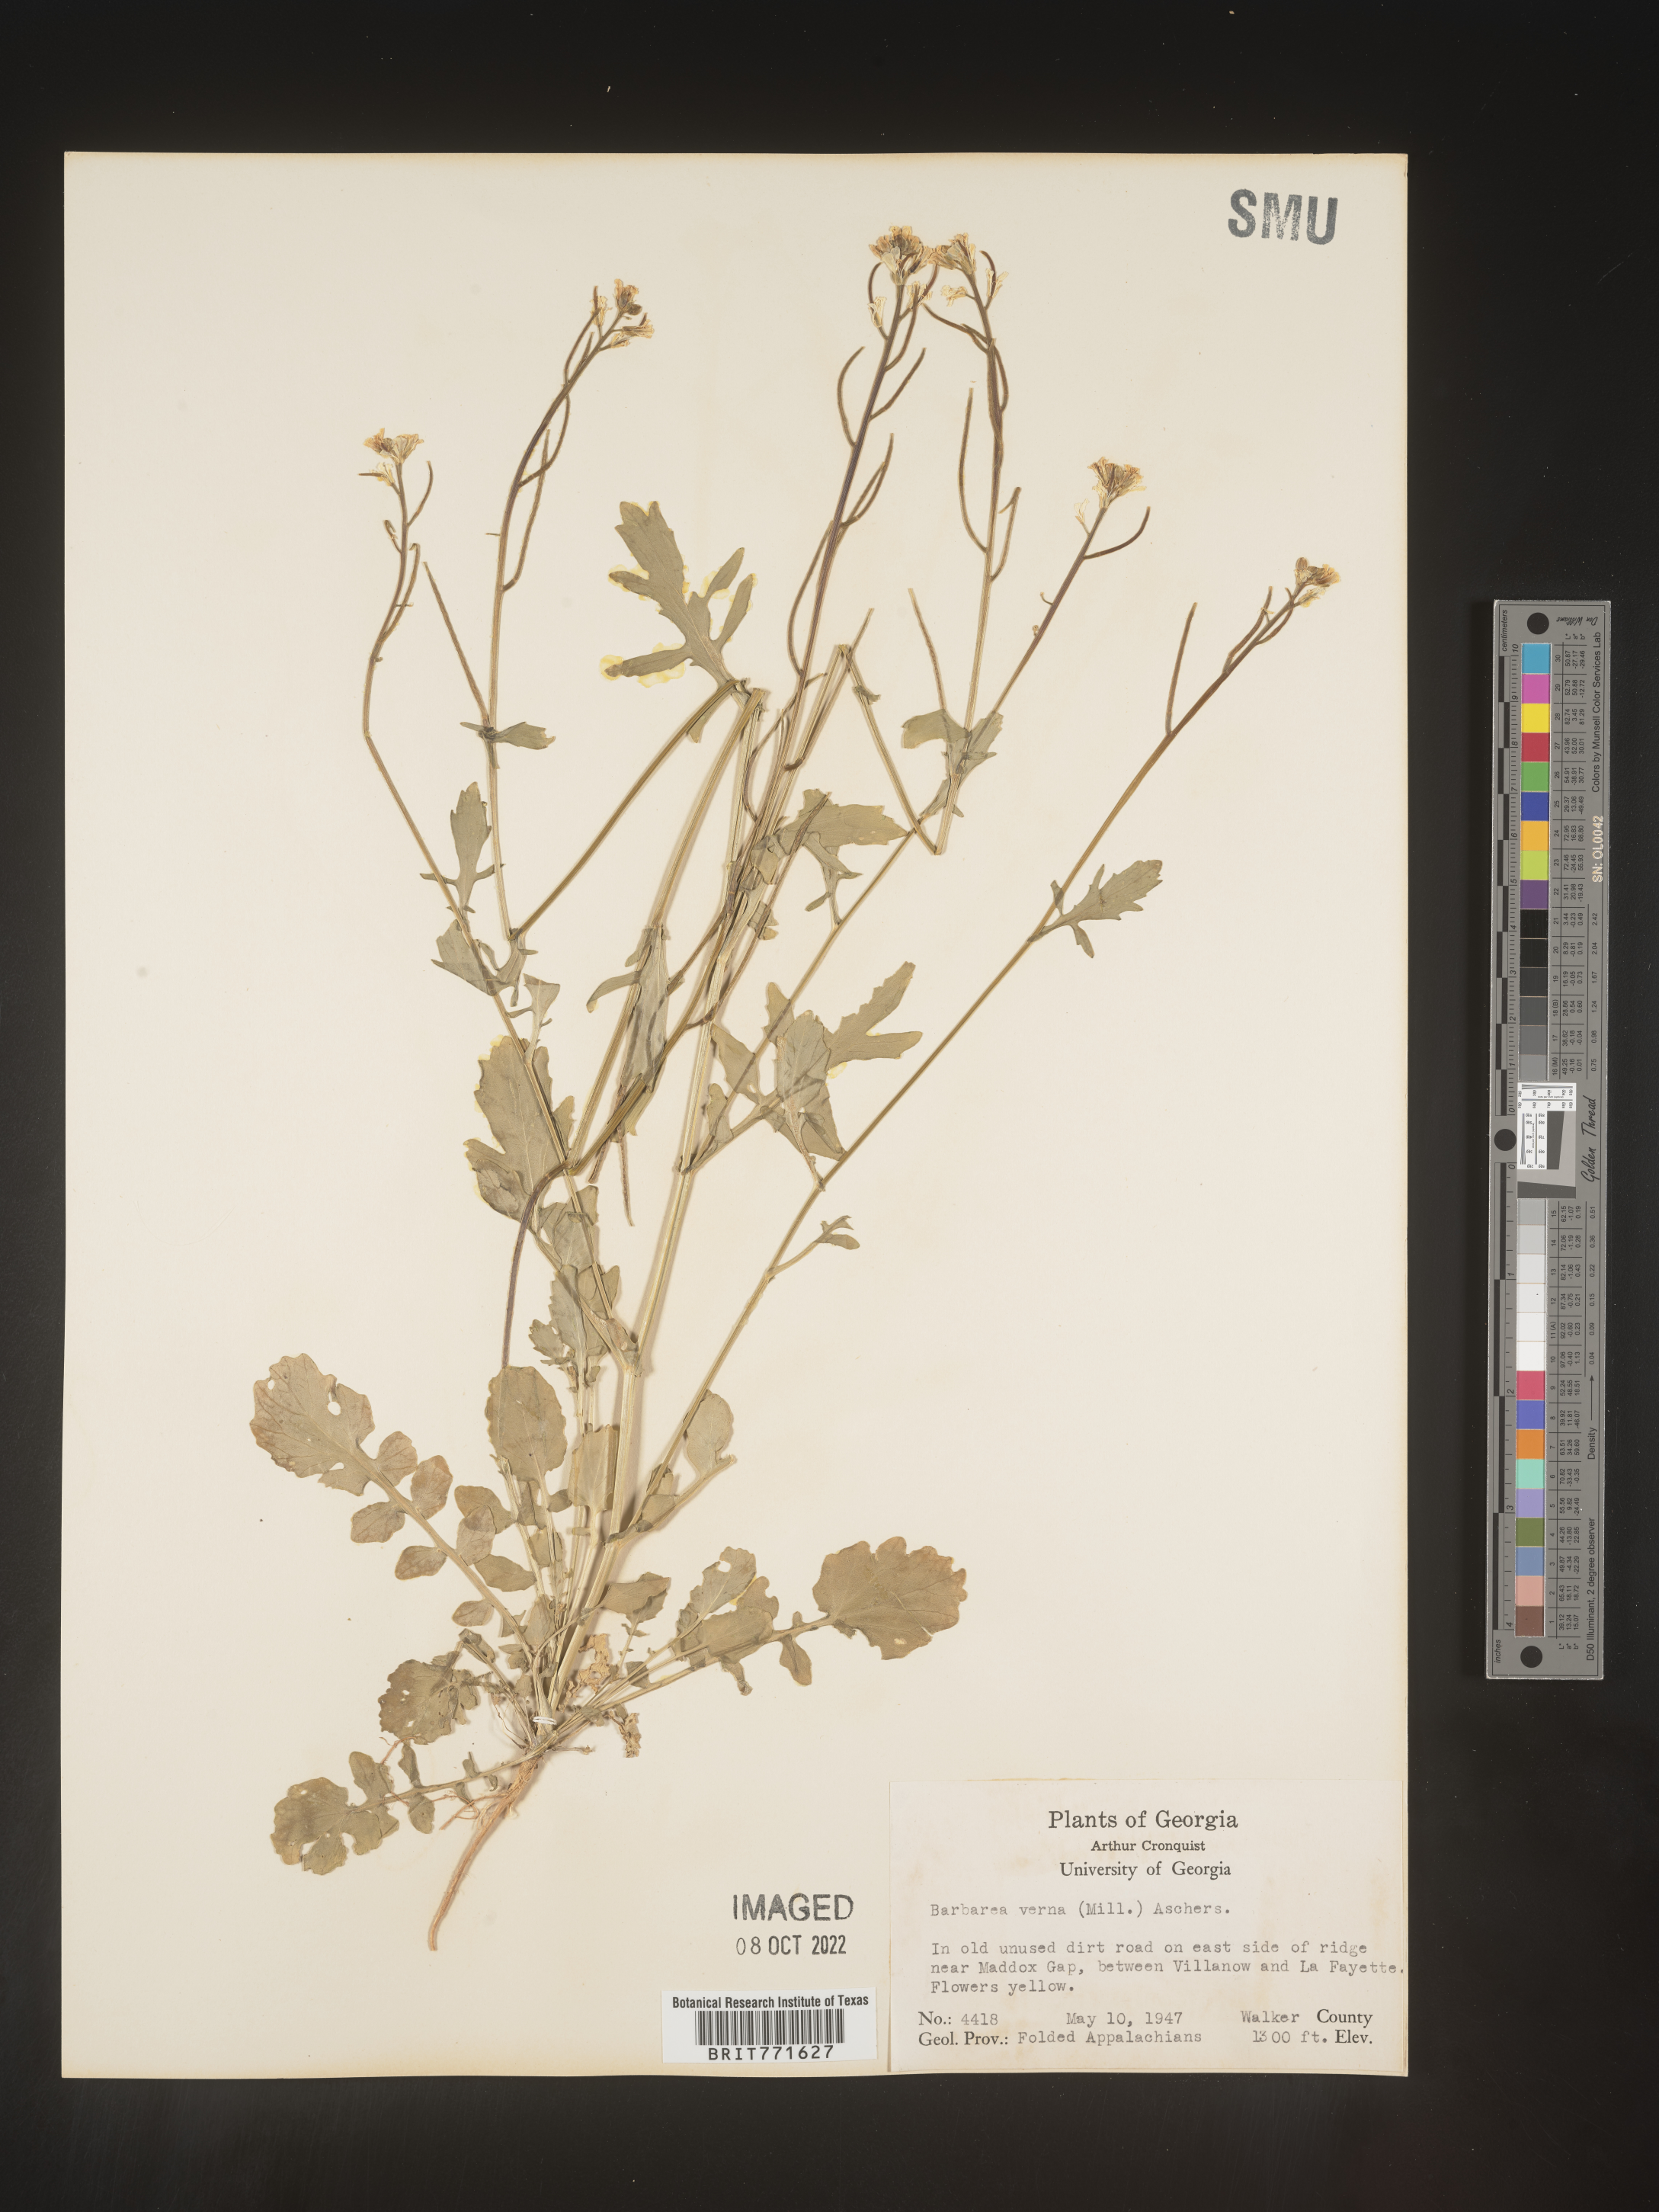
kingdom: Plantae
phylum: Tracheophyta
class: Magnoliopsida
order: Brassicales
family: Brassicaceae
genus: Barbarea
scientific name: Barbarea verna
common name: American cress
